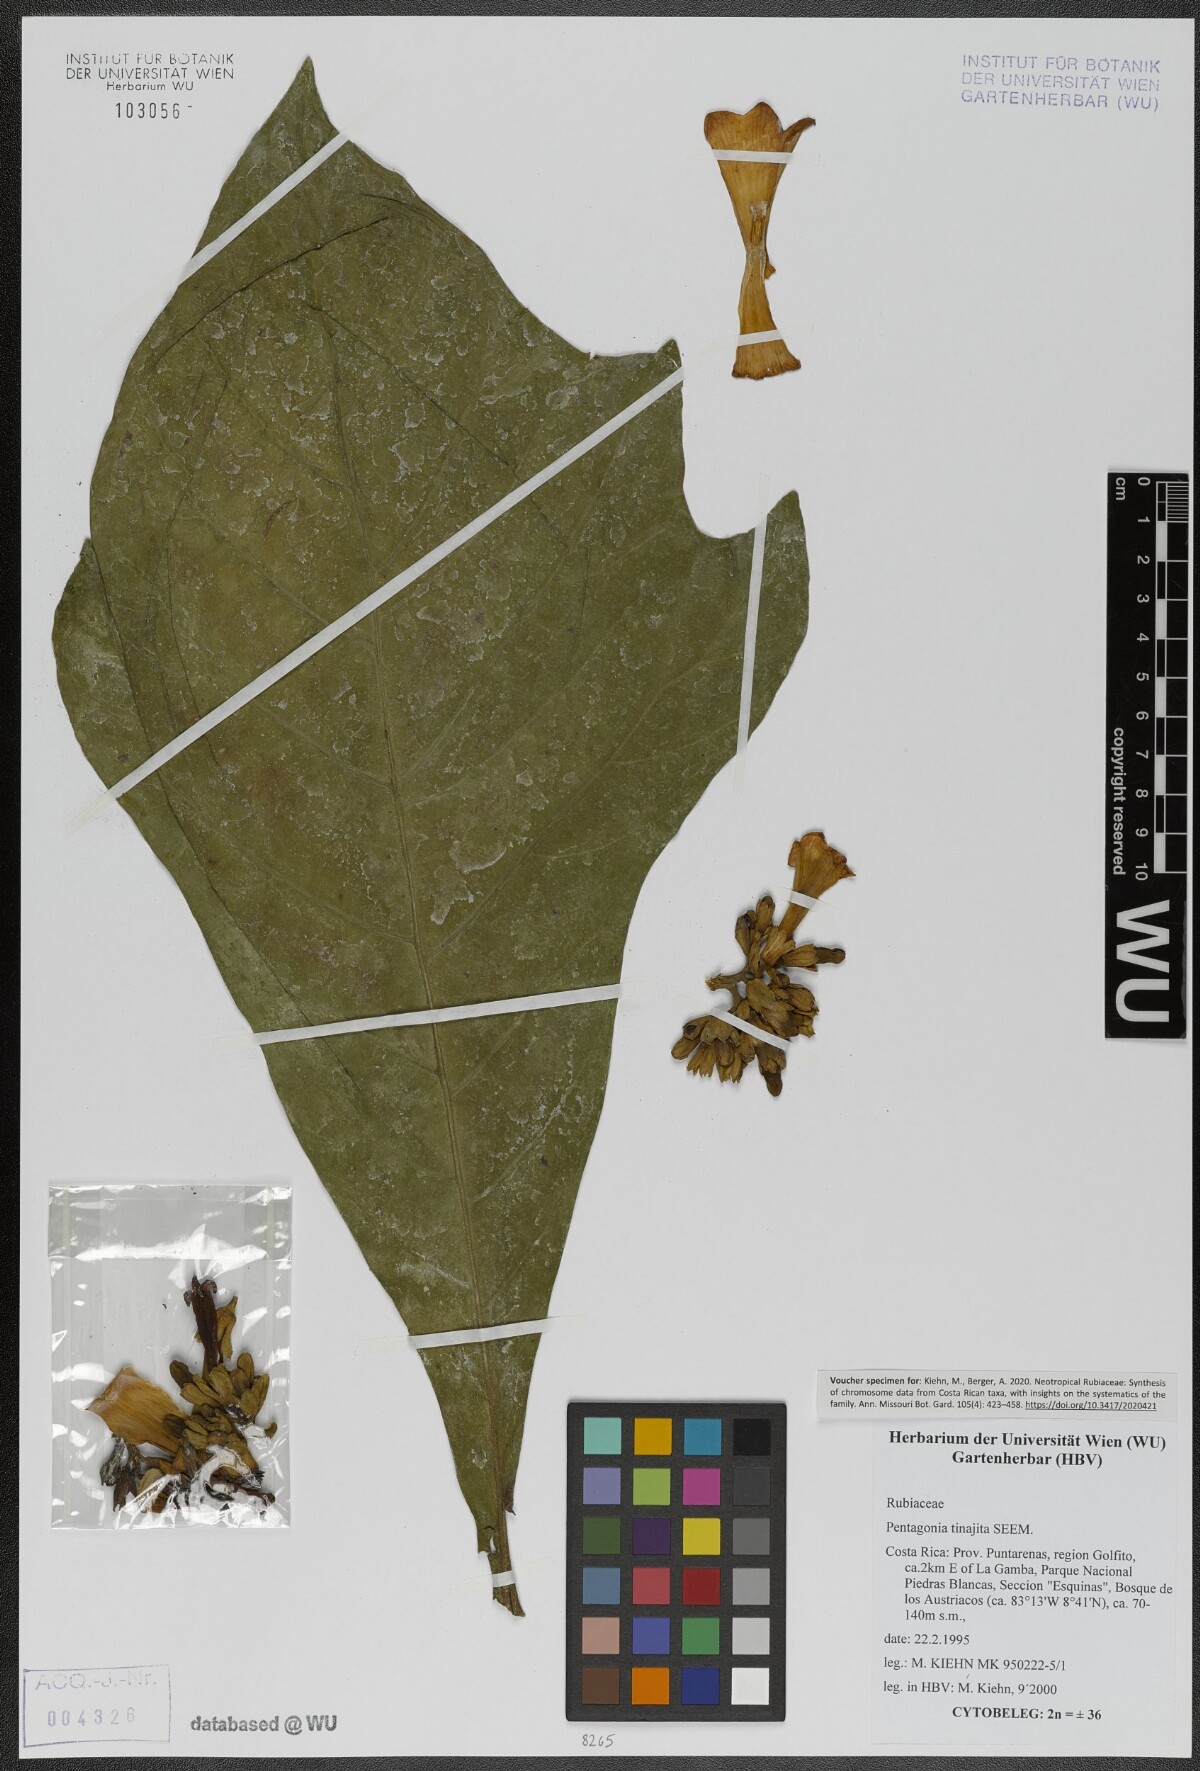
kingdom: Plantae
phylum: Tracheophyta
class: Magnoliopsida
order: Gentianales
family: Rubiaceae
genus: Pentagonia
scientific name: Pentagonia tinajita
